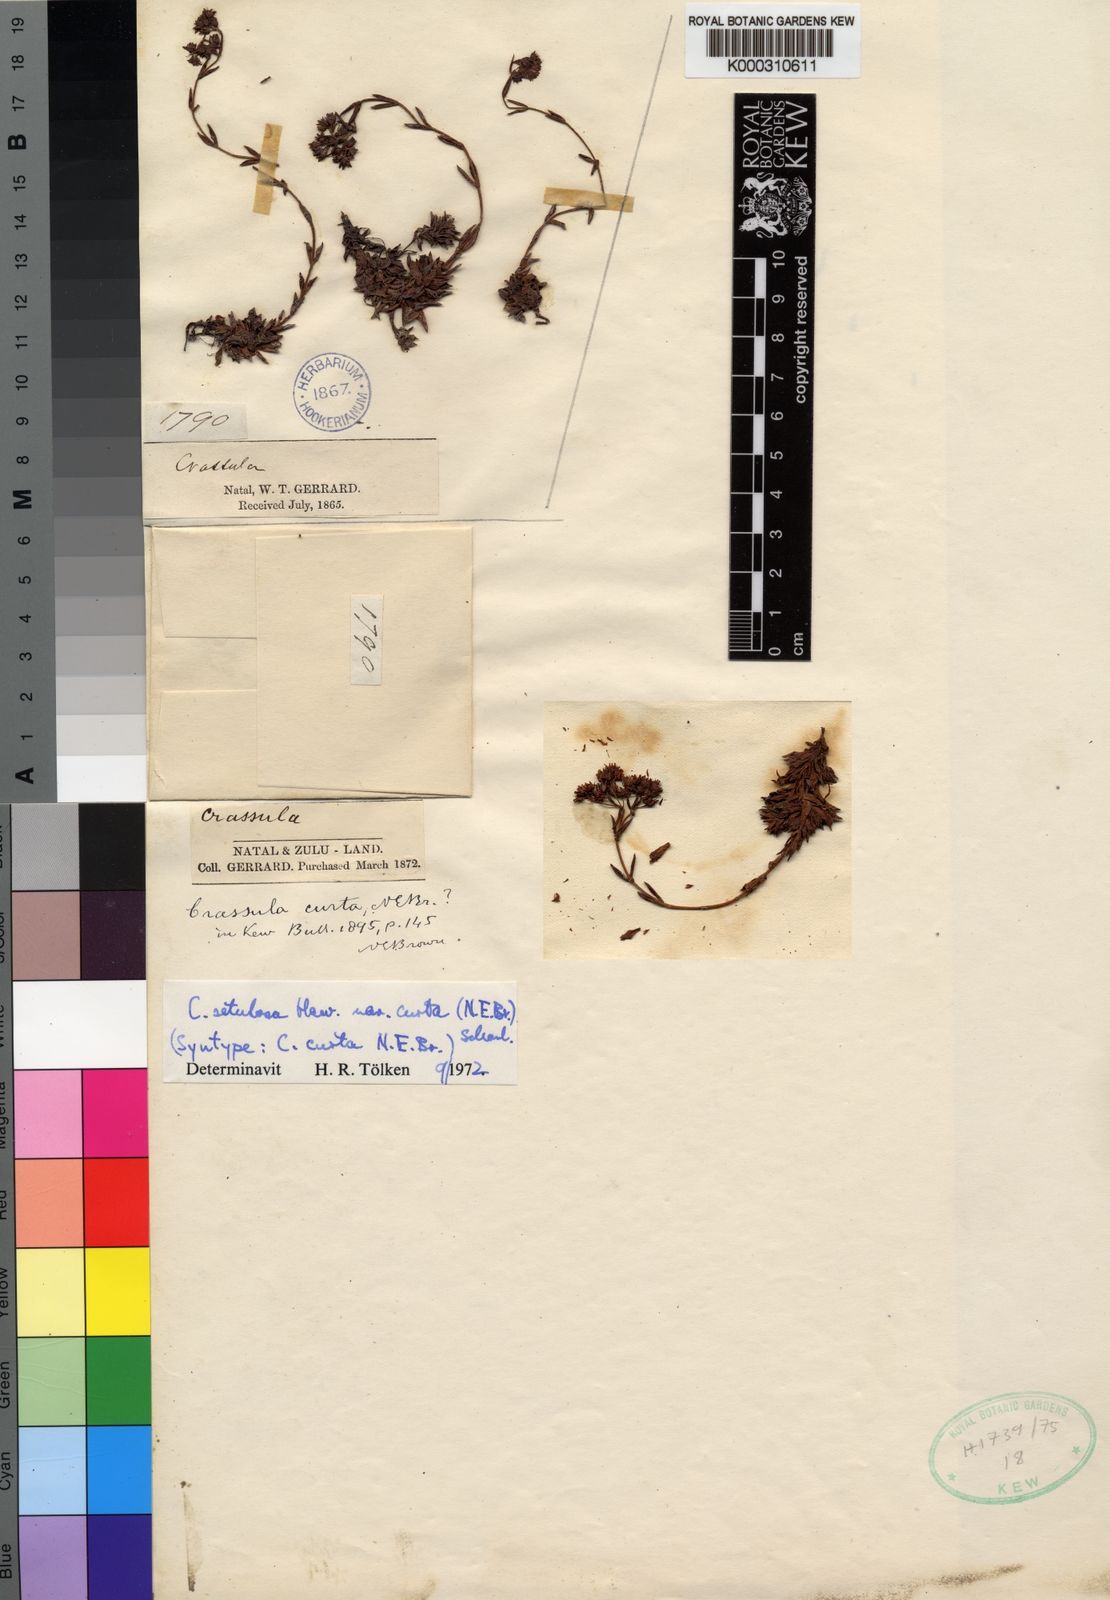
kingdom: Plantae
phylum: Tracheophyta
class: Magnoliopsida
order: Saxifragales
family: Crassulaceae
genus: Crassula
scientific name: Crassula setulosa
